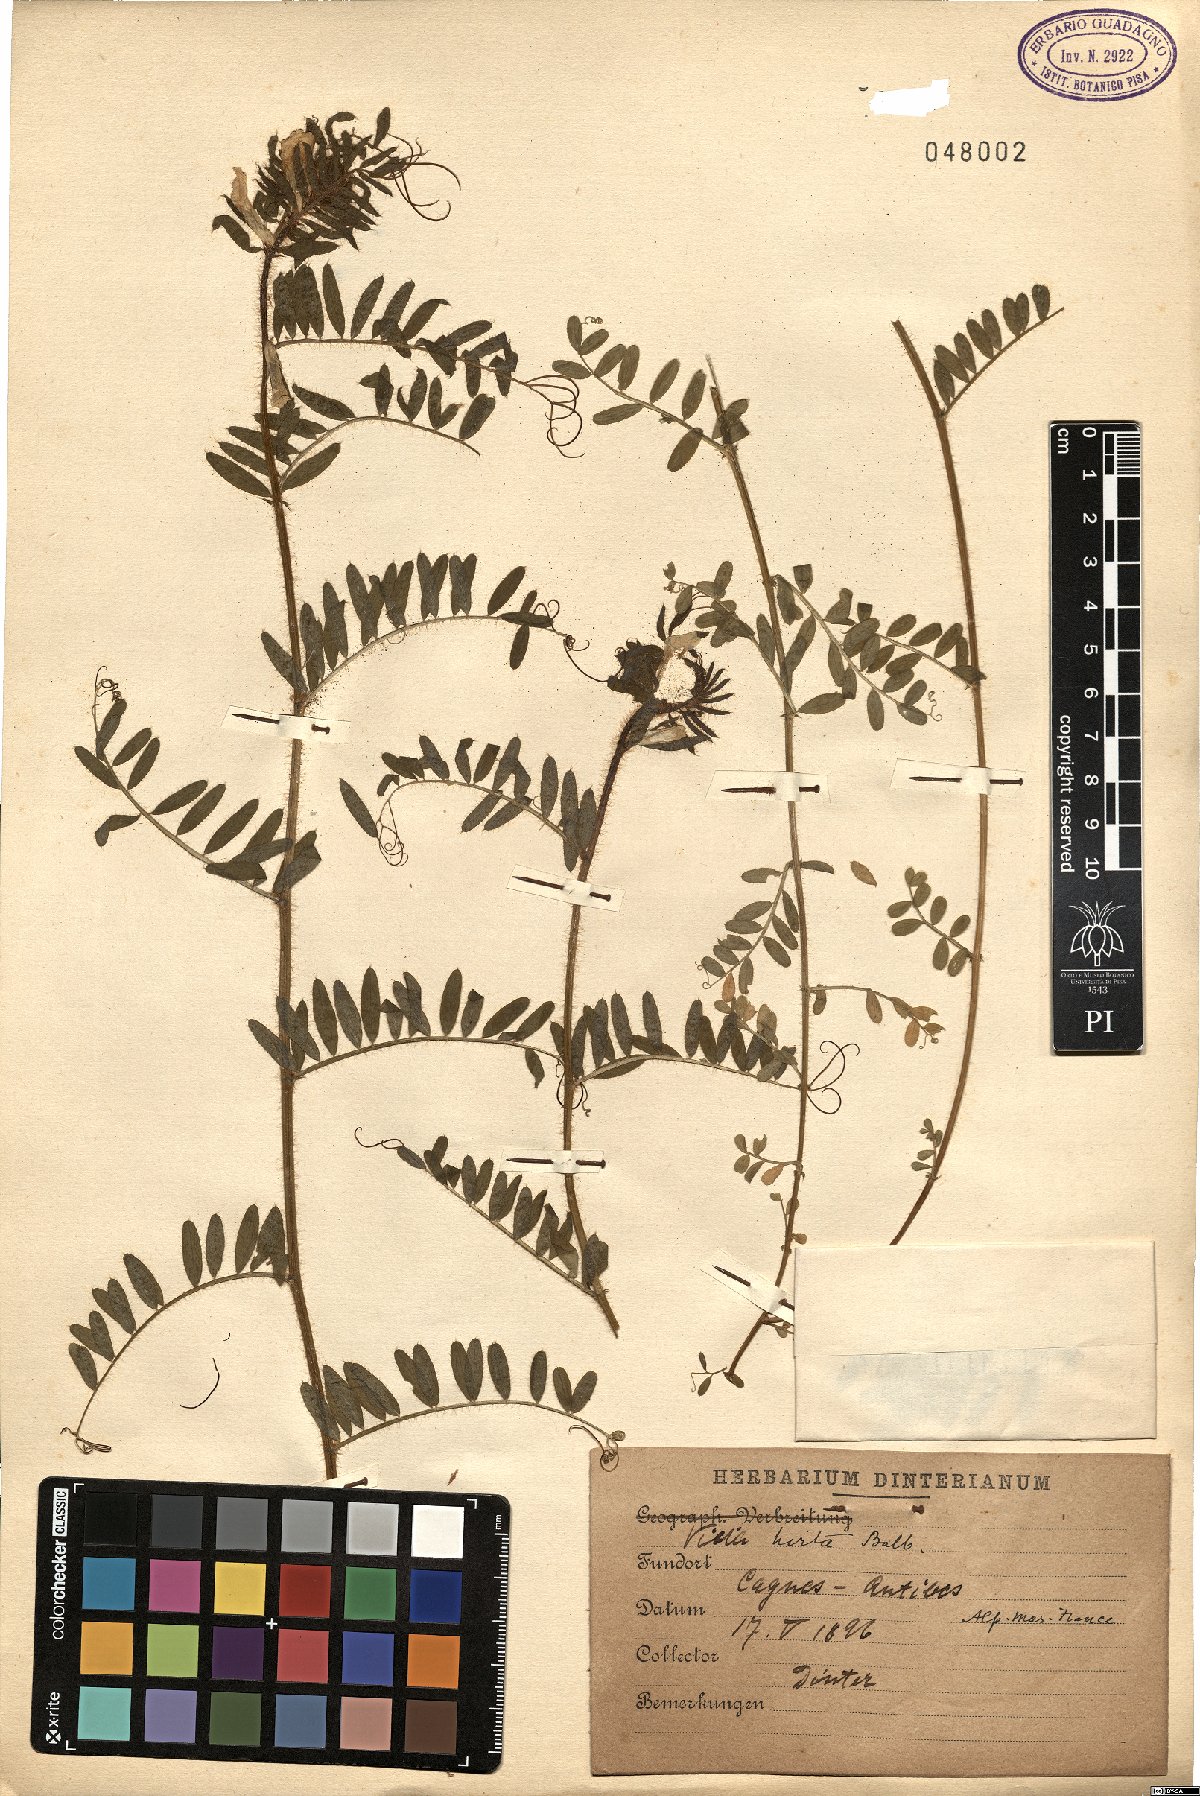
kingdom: Plantae
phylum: Tracheophyta
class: Magnoliopsida
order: Fabales
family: Fabaceae
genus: Vicia
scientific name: Vicia lutea
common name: Smooth yellow vetch
